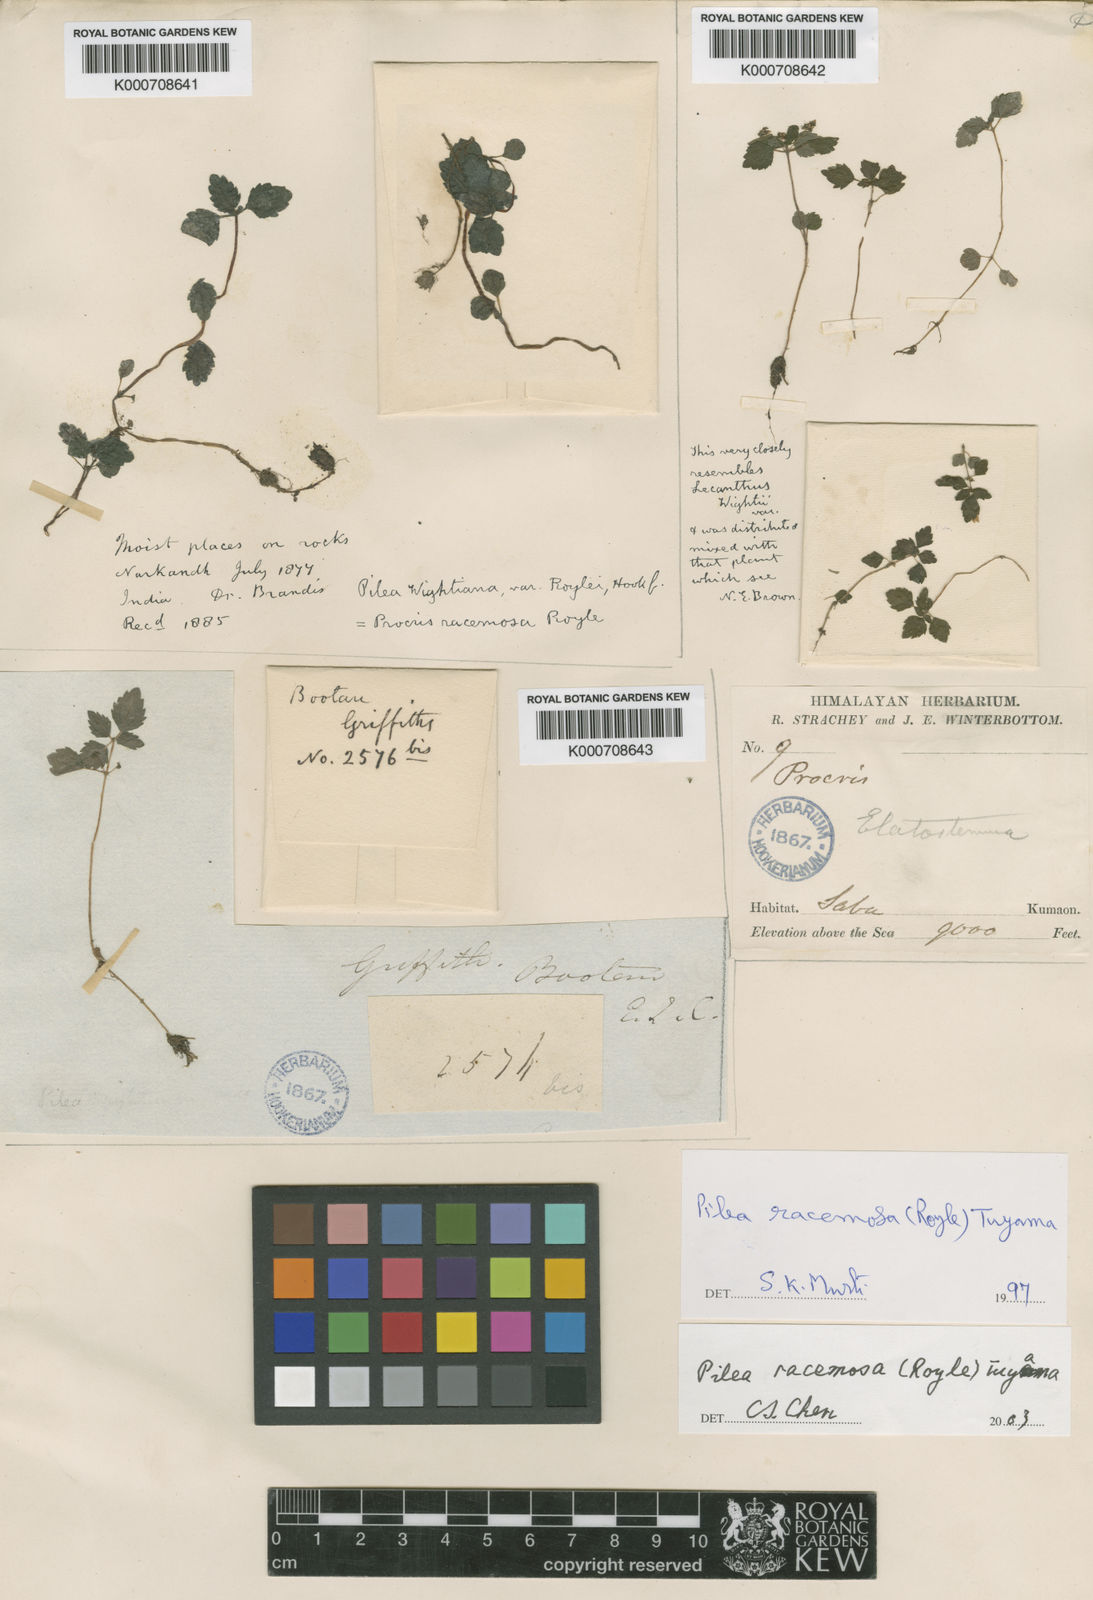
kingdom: Plantae
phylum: Tracheophyta
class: Magnoliopsida
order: Rosales
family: Urticaceae
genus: Pilea
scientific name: Pilea racemosa
